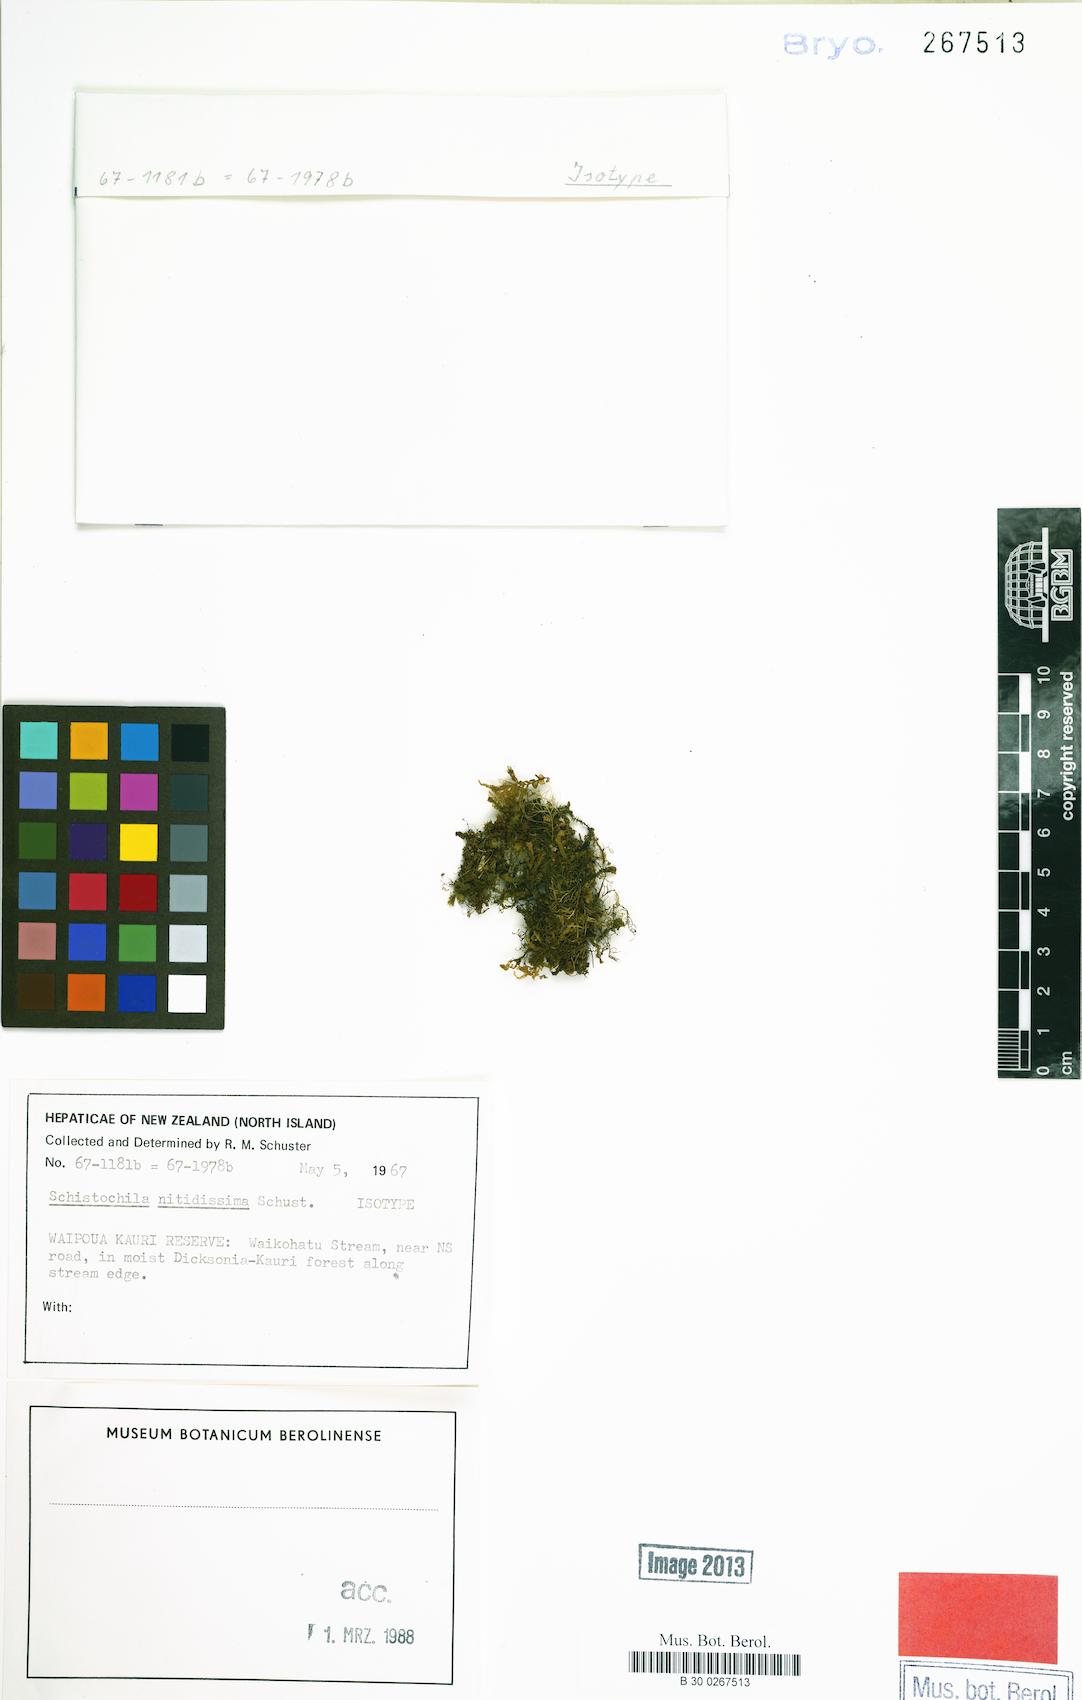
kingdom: Plantae
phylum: Marchantiophyta
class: Jungermanniopsida
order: Jungermanniales
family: Schistochilaceae
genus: Schistochila
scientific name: Schistochila nitidissima
